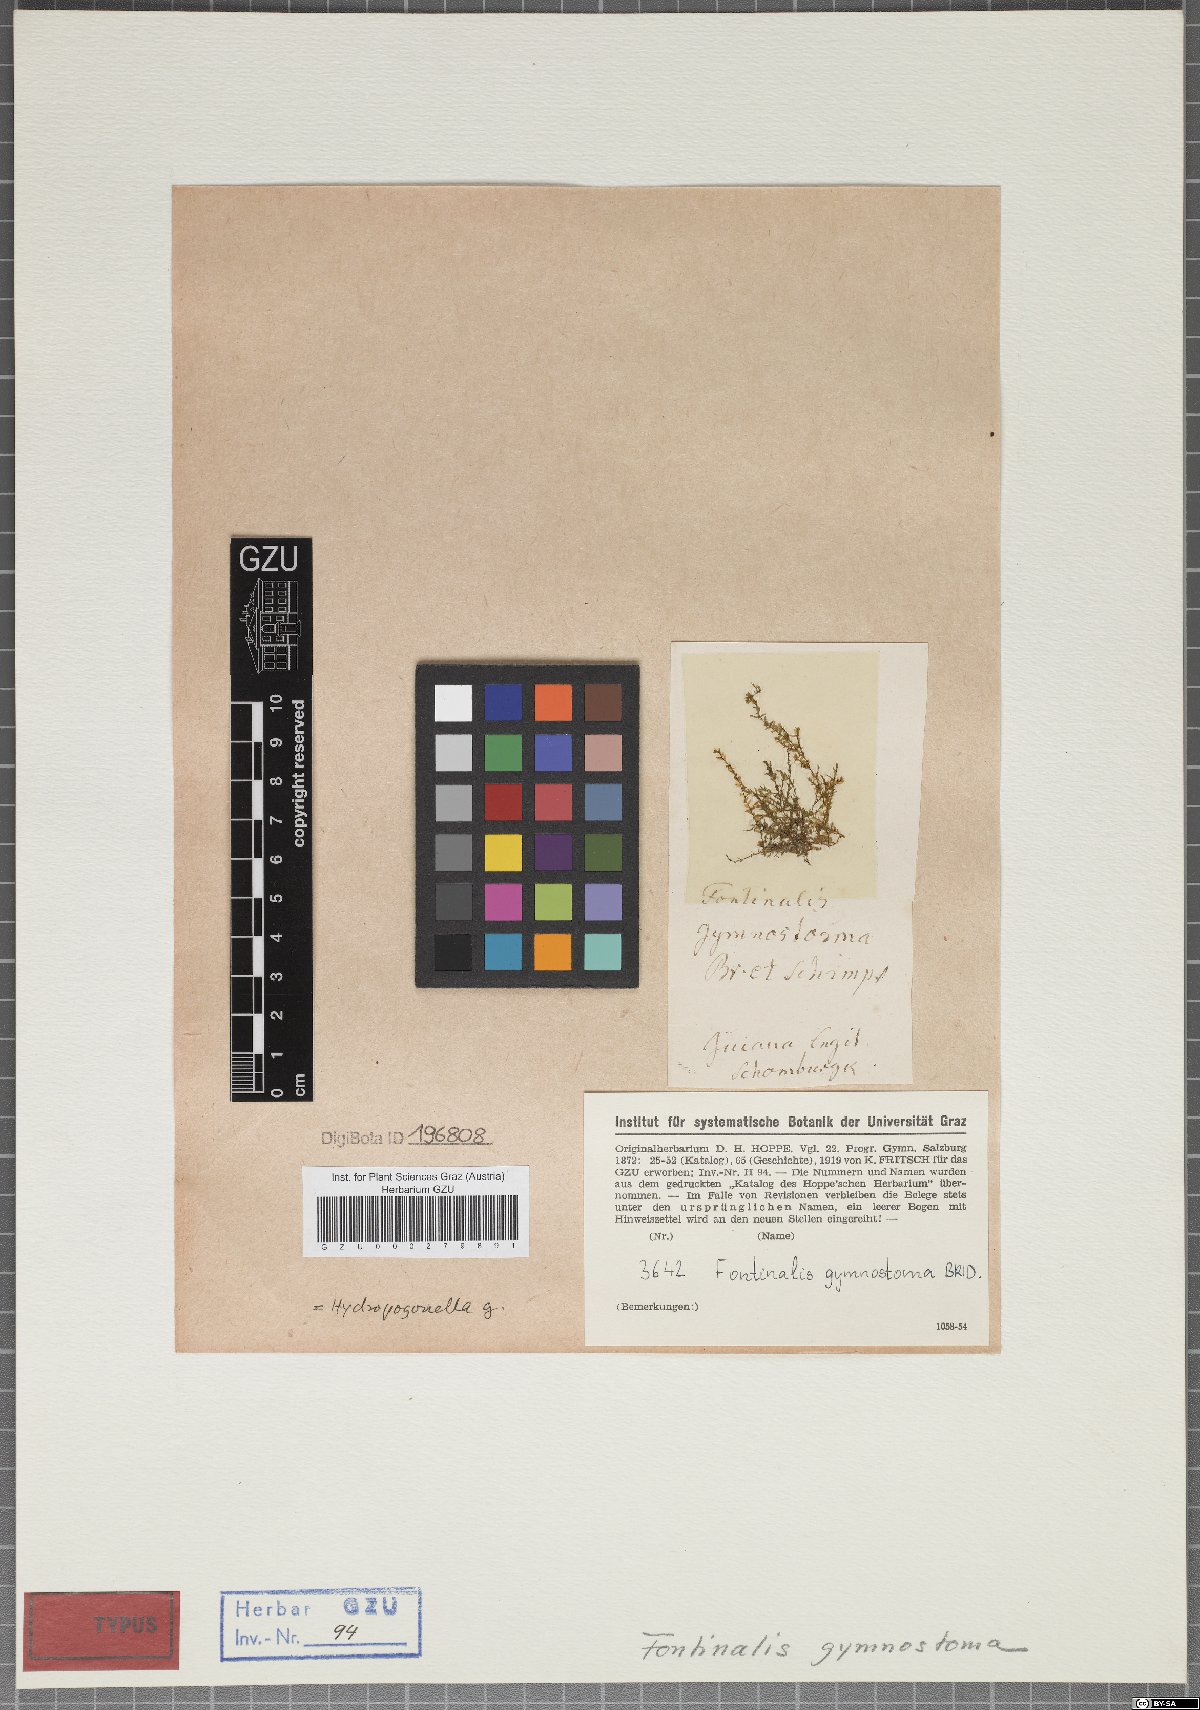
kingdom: Plantae
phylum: Bryophyta
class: Bryopsida
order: Hypnales
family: Hydropogonellaceae
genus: Hydropogonella
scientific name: Hydropogonella gymnostoma
